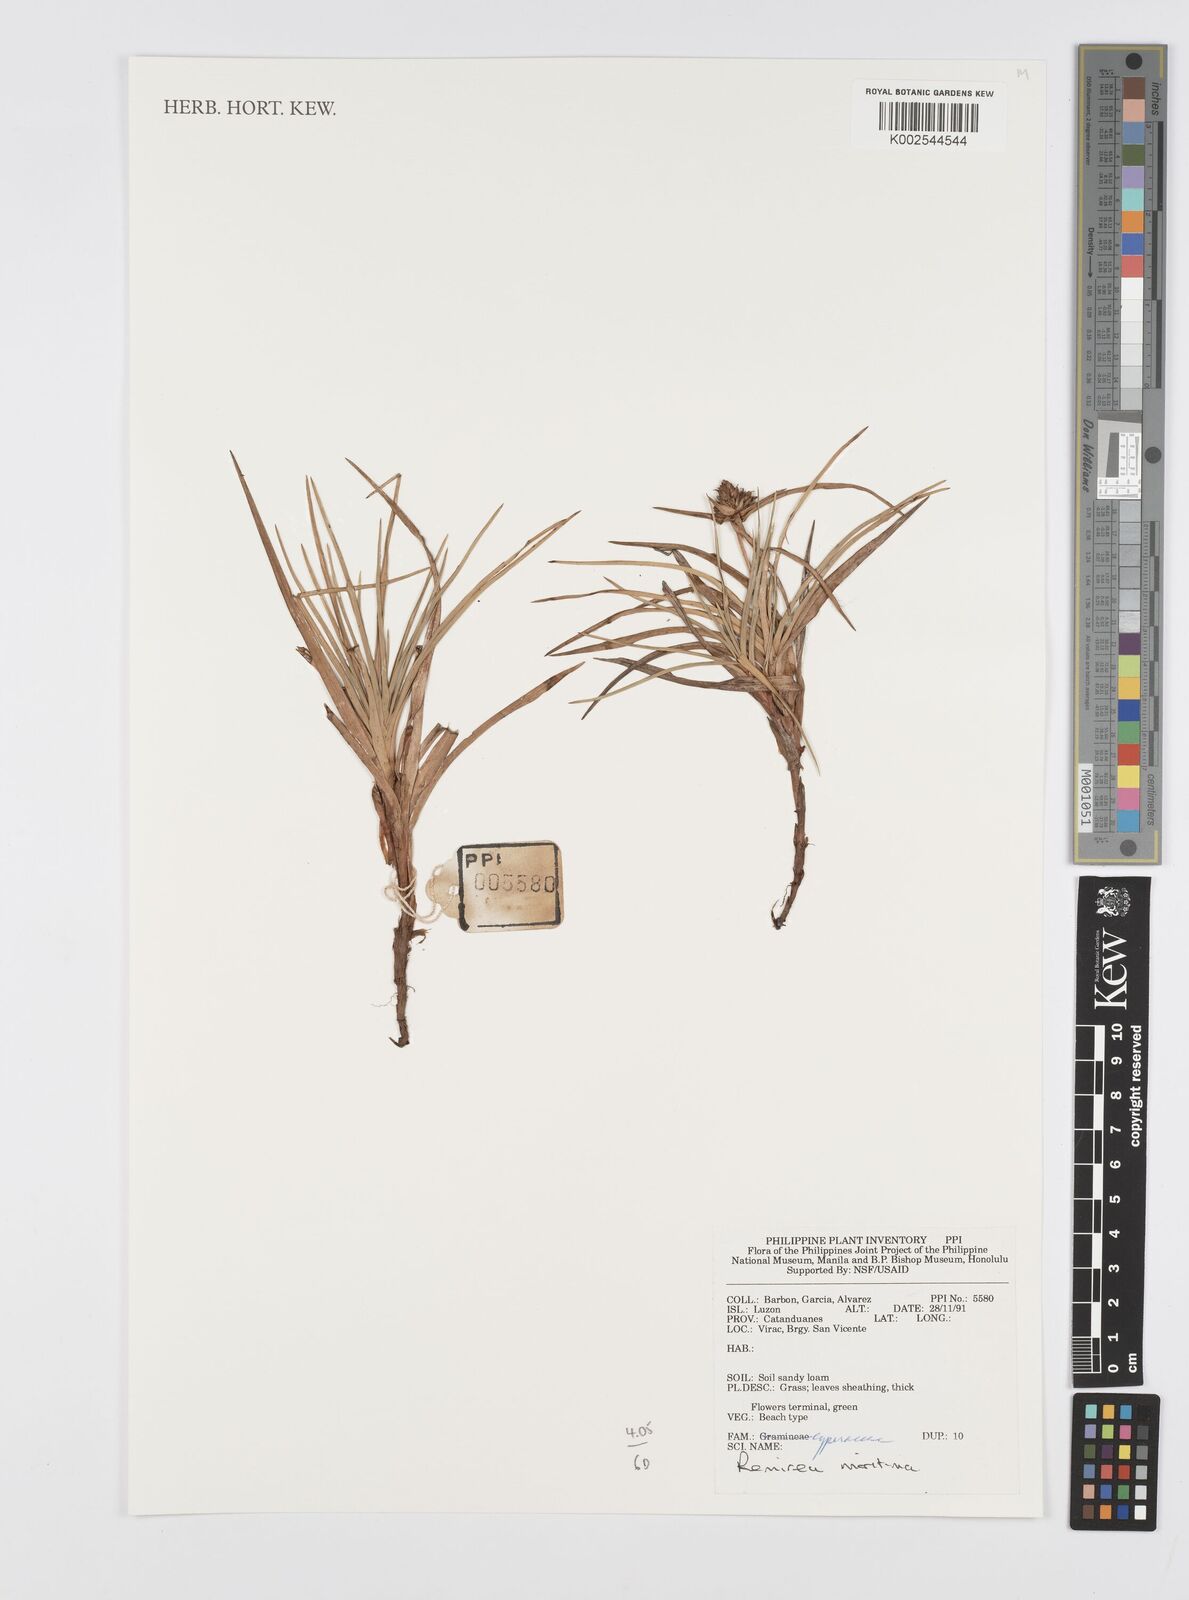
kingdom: Plantae
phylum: Tracheophyta
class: Liliopsida
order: Poales
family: Cyperaceae
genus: Cyperus
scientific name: Cyperus
